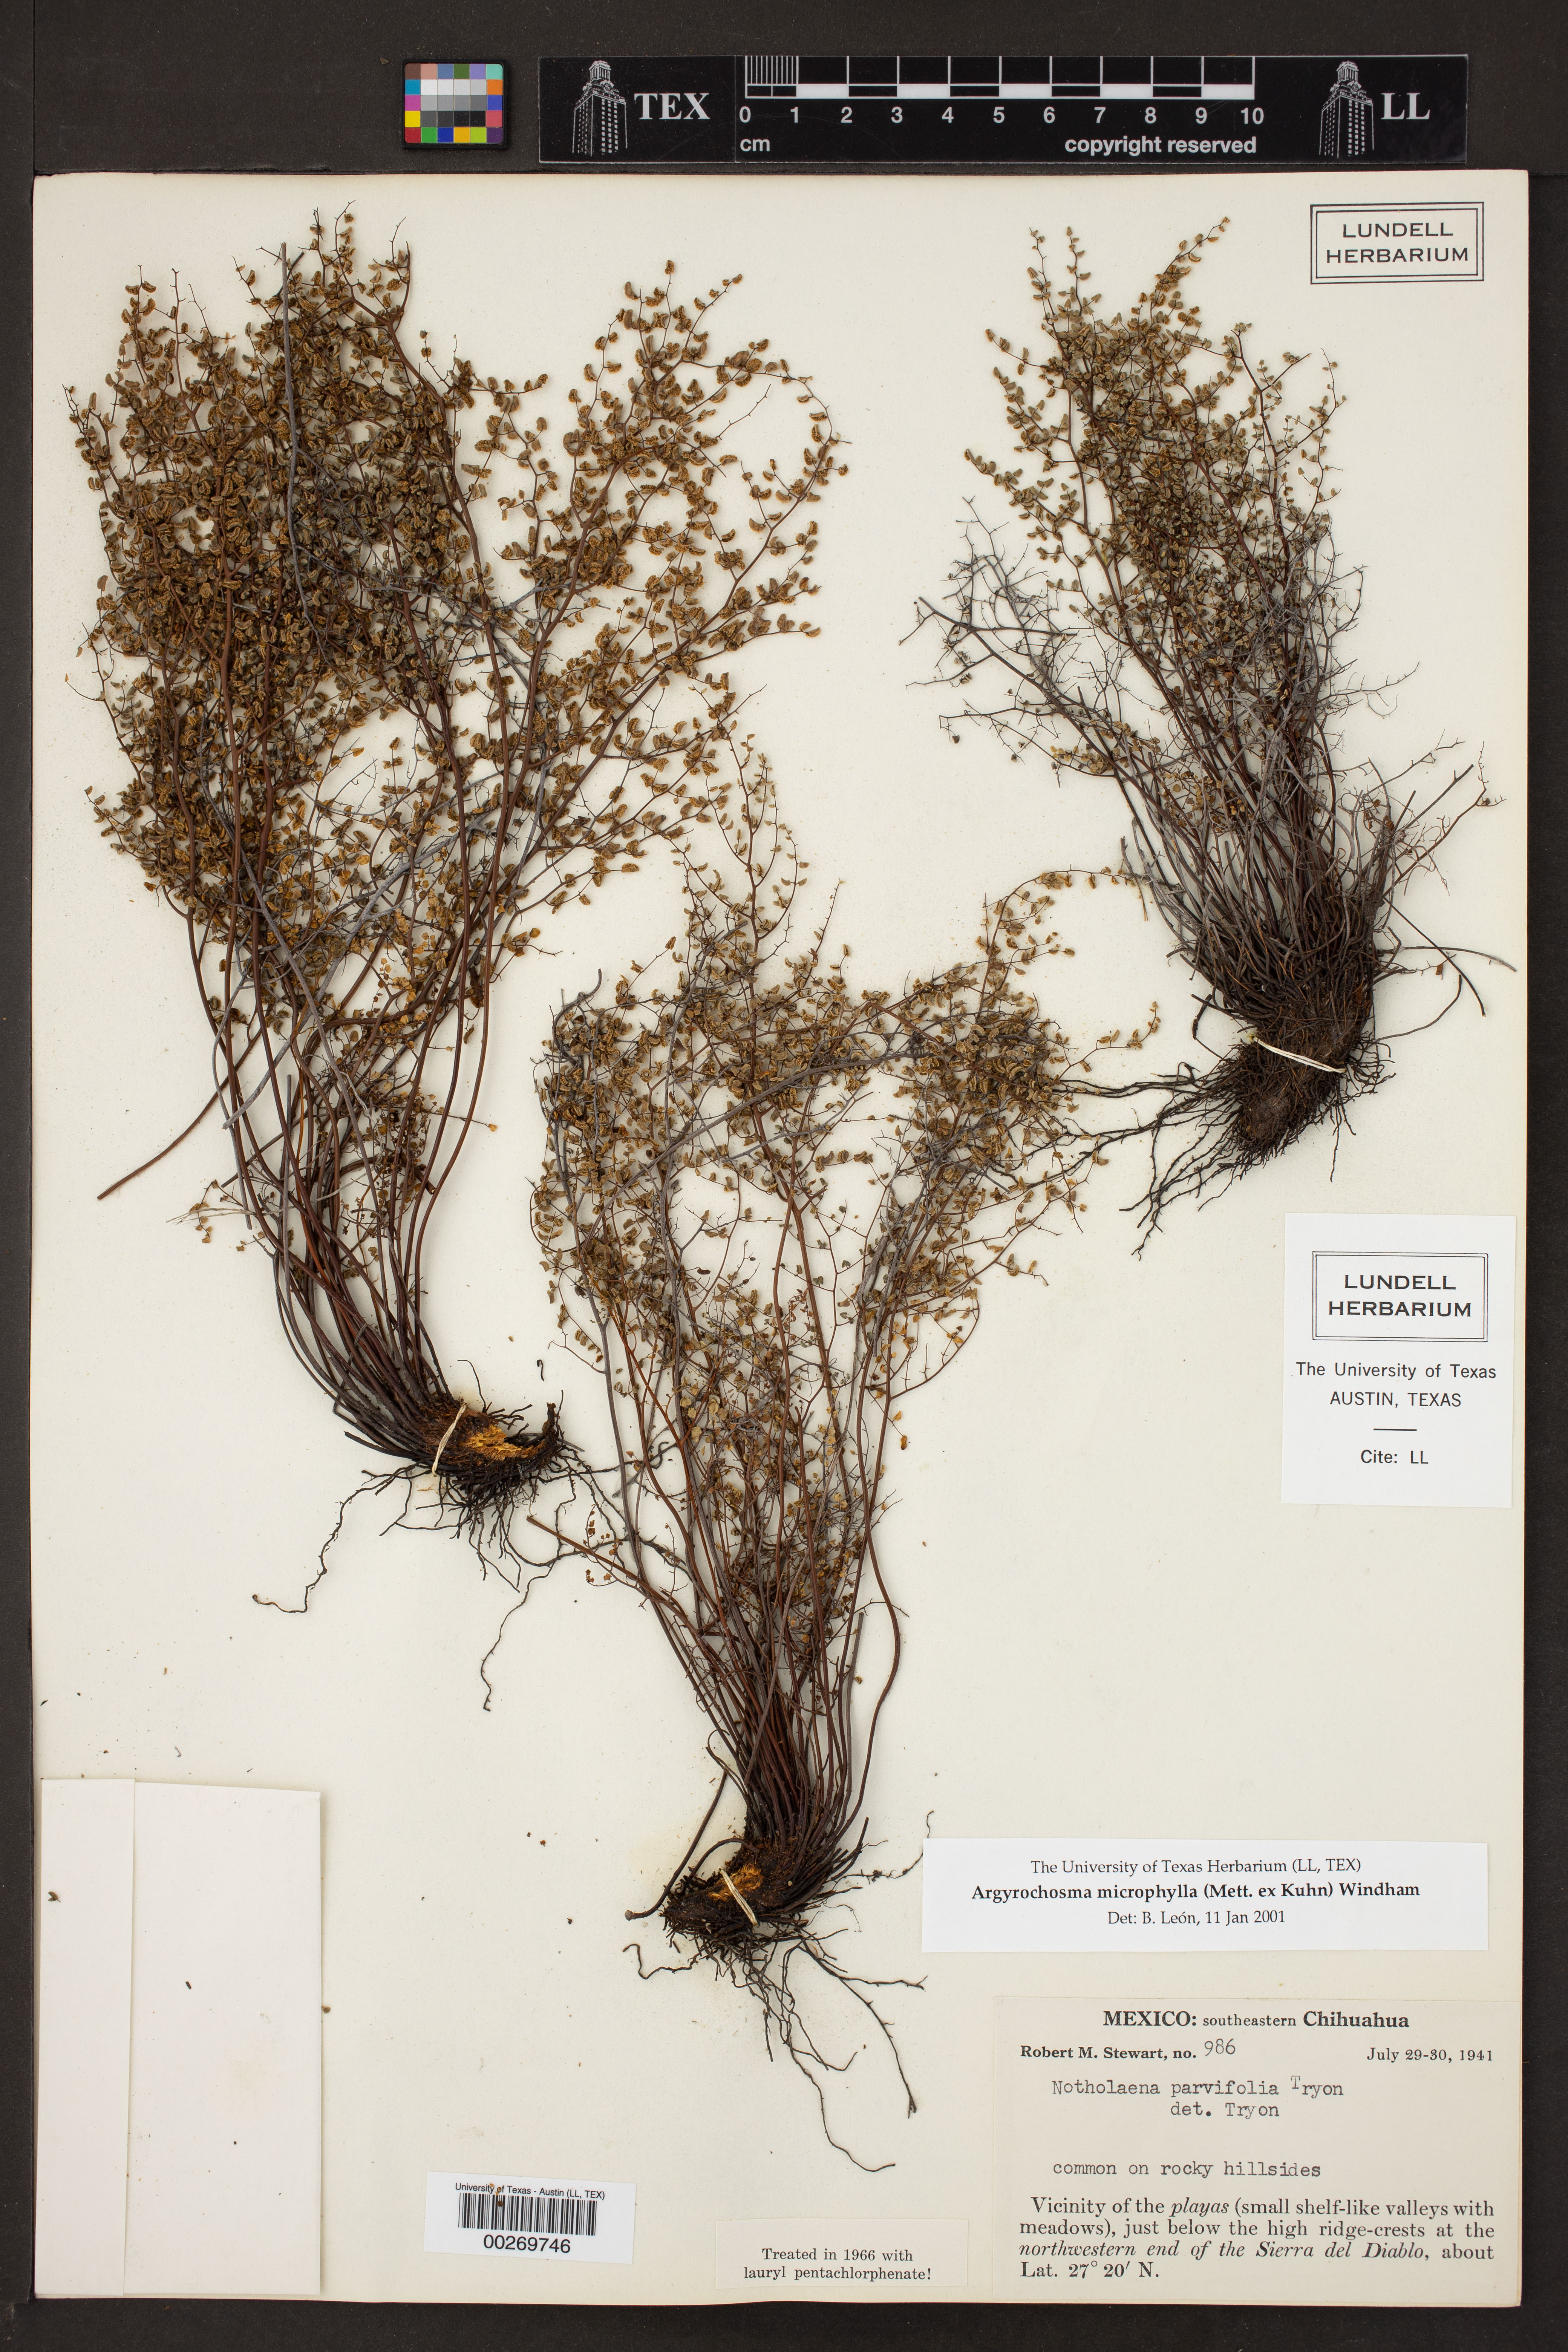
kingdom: Plantae
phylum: Tracheophyta
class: Polypodiopsida
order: Polypodiales
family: Pteridaceae
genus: Argyrochosma
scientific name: Argyrochosma microphylla
